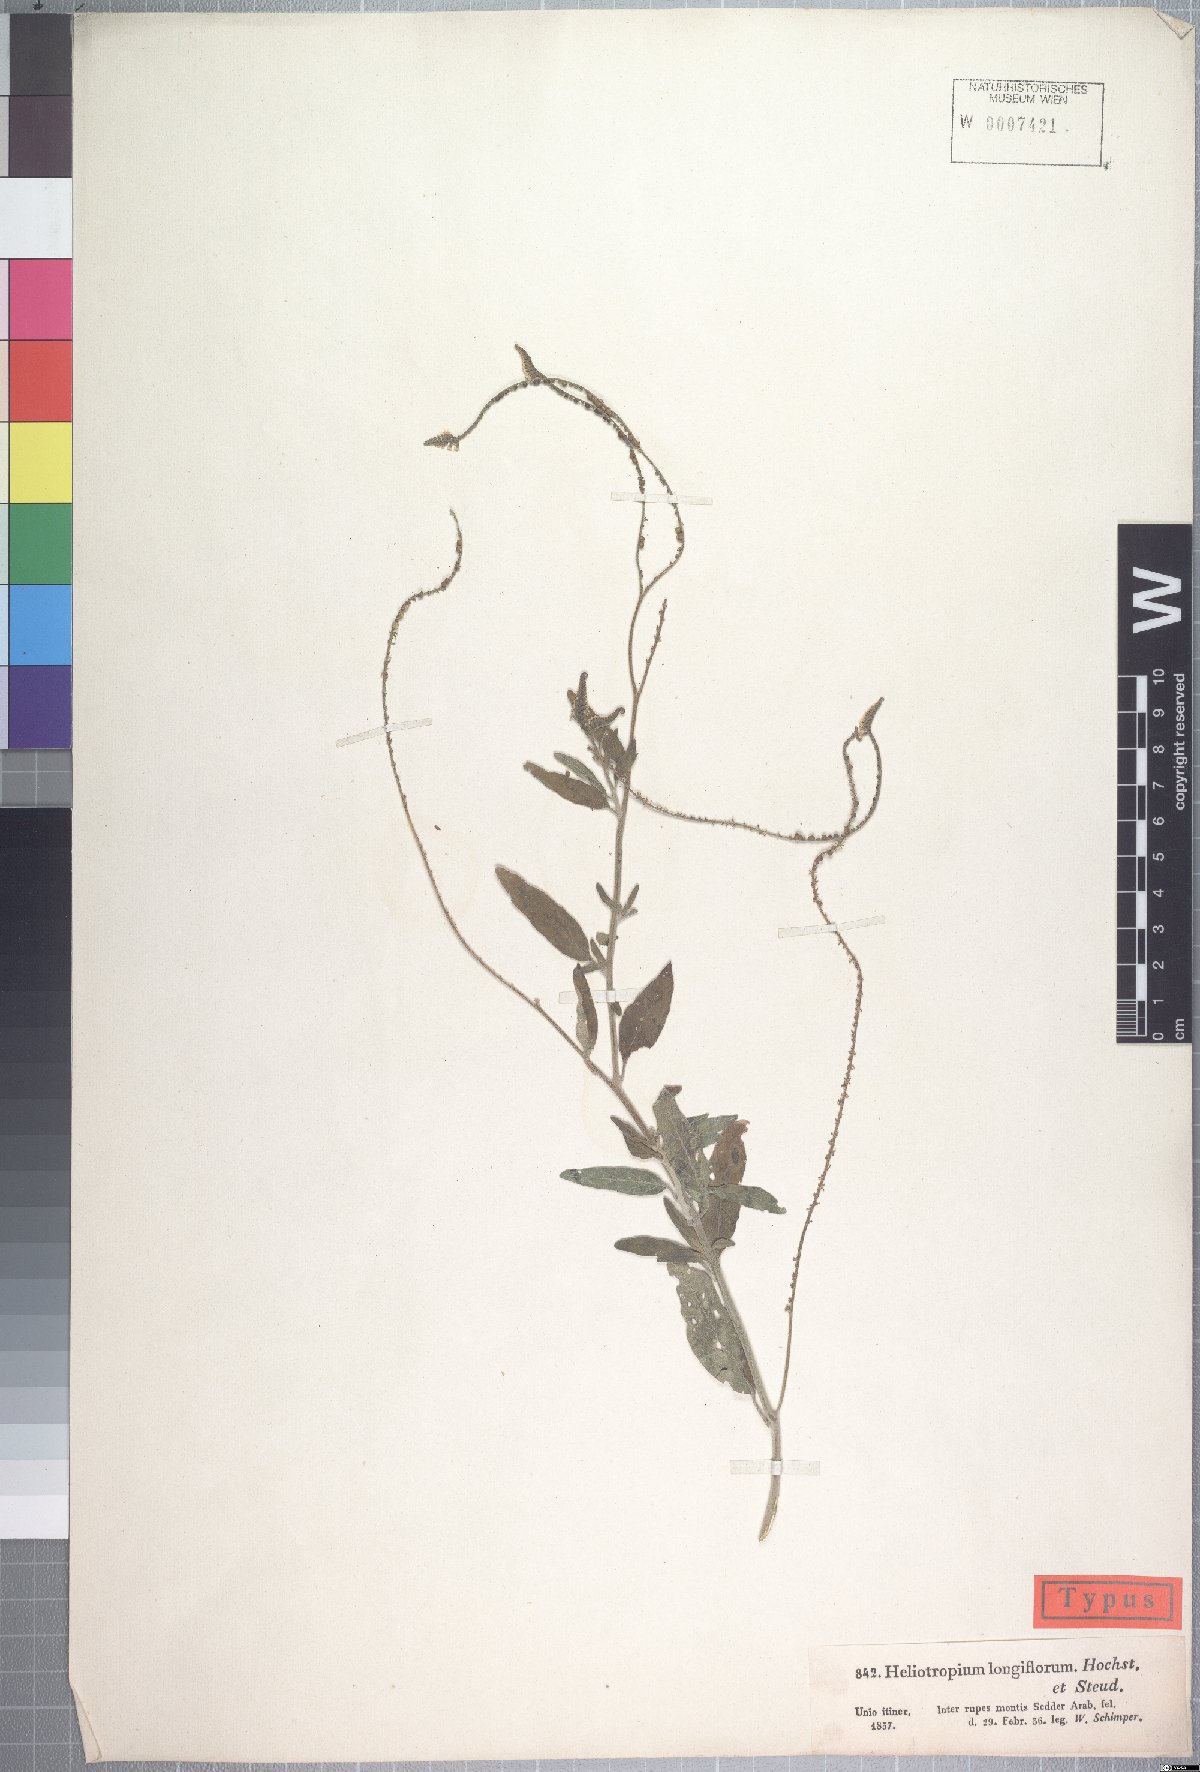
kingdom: Plantae
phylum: Tracheophyta
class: Magnoliopsida
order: Boraginales
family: Heliotropiaceae
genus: Heliotropium
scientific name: Heliotropium longiflorum
